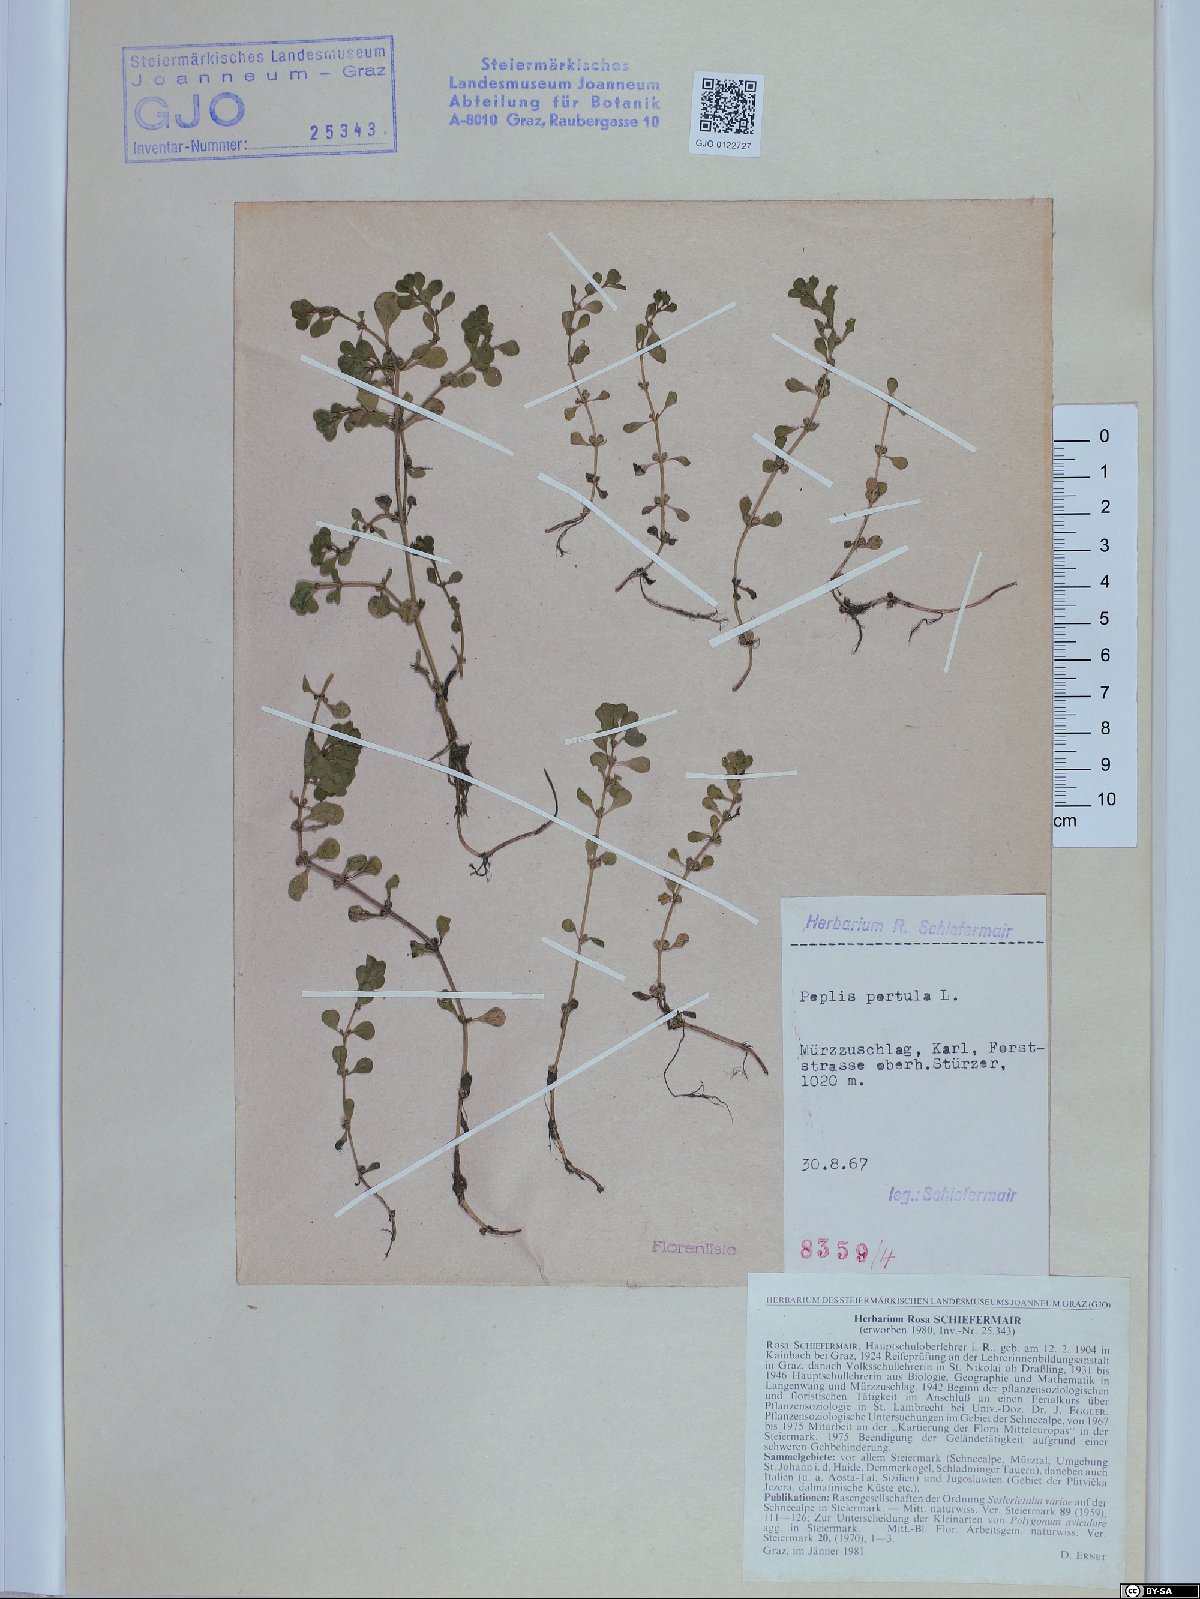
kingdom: Plantae
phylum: Tracheophyta
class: Magnoliopsida
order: Myrtales
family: Lythraceae
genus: Lythrum
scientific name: Lythrum portula
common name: Water purslane
